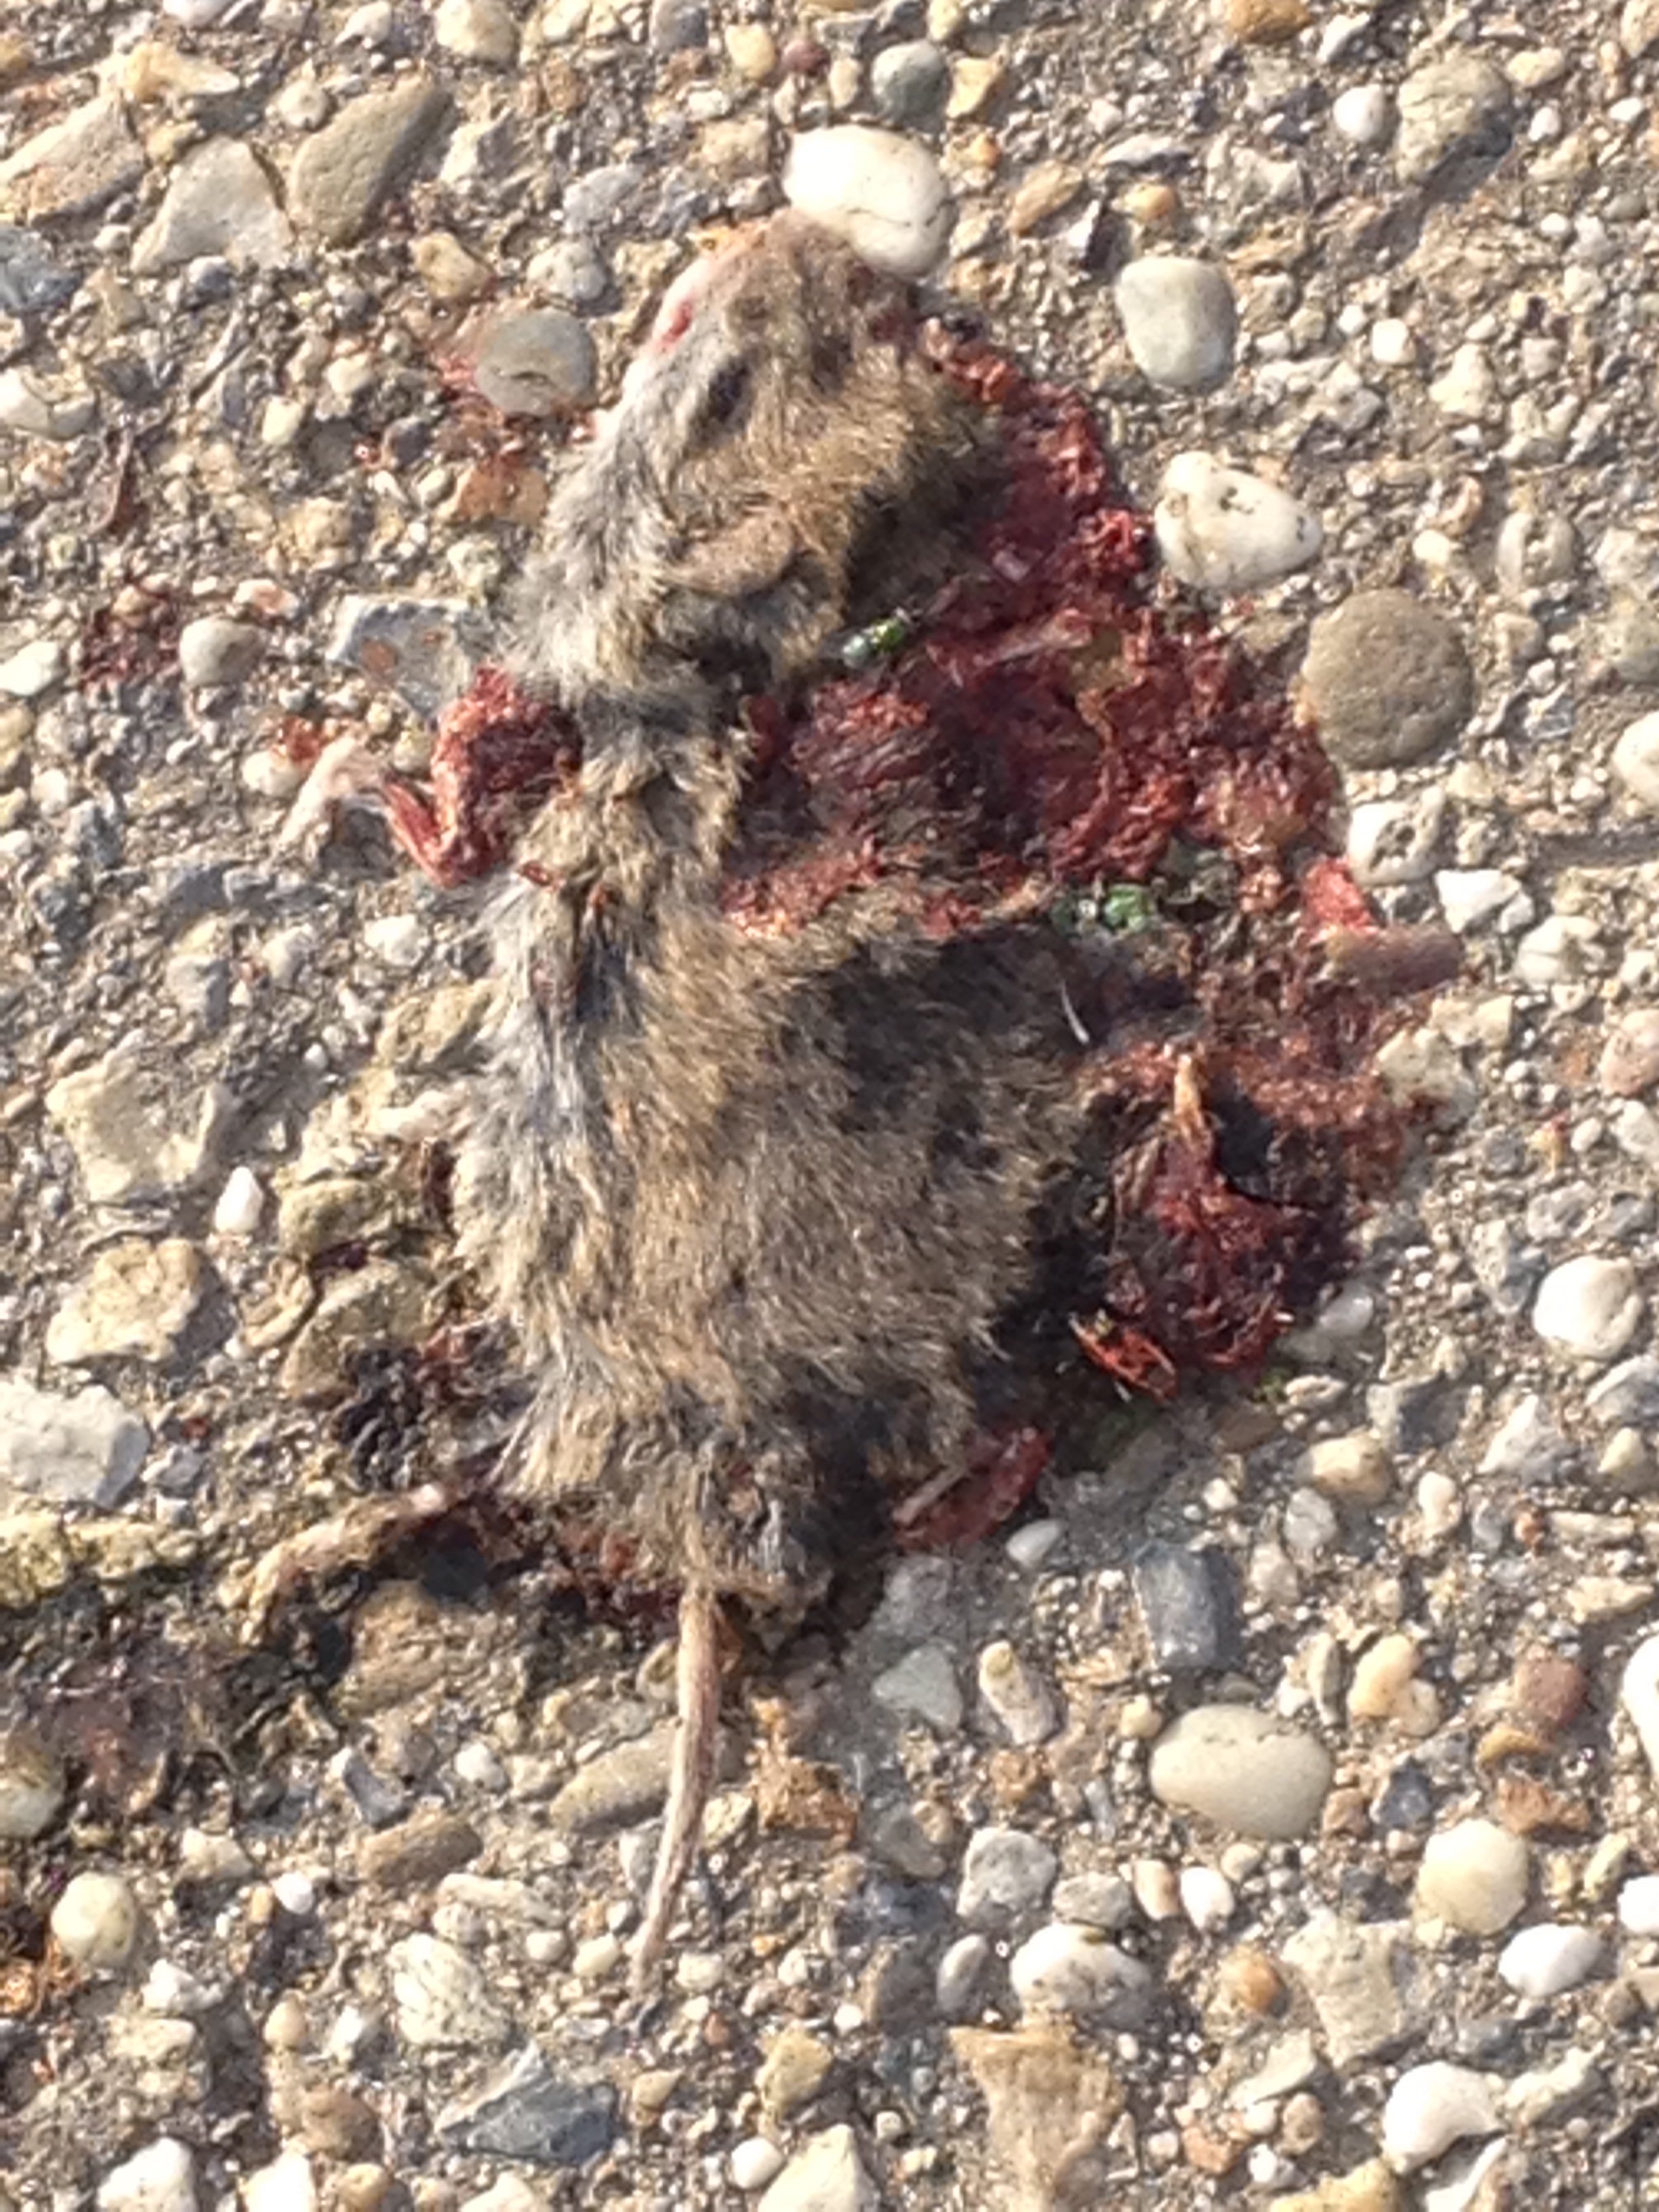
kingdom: Animalia
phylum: Chordata
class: Mammalia
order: Rodentia
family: Cricetidae
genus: Microtus
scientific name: Microtus
